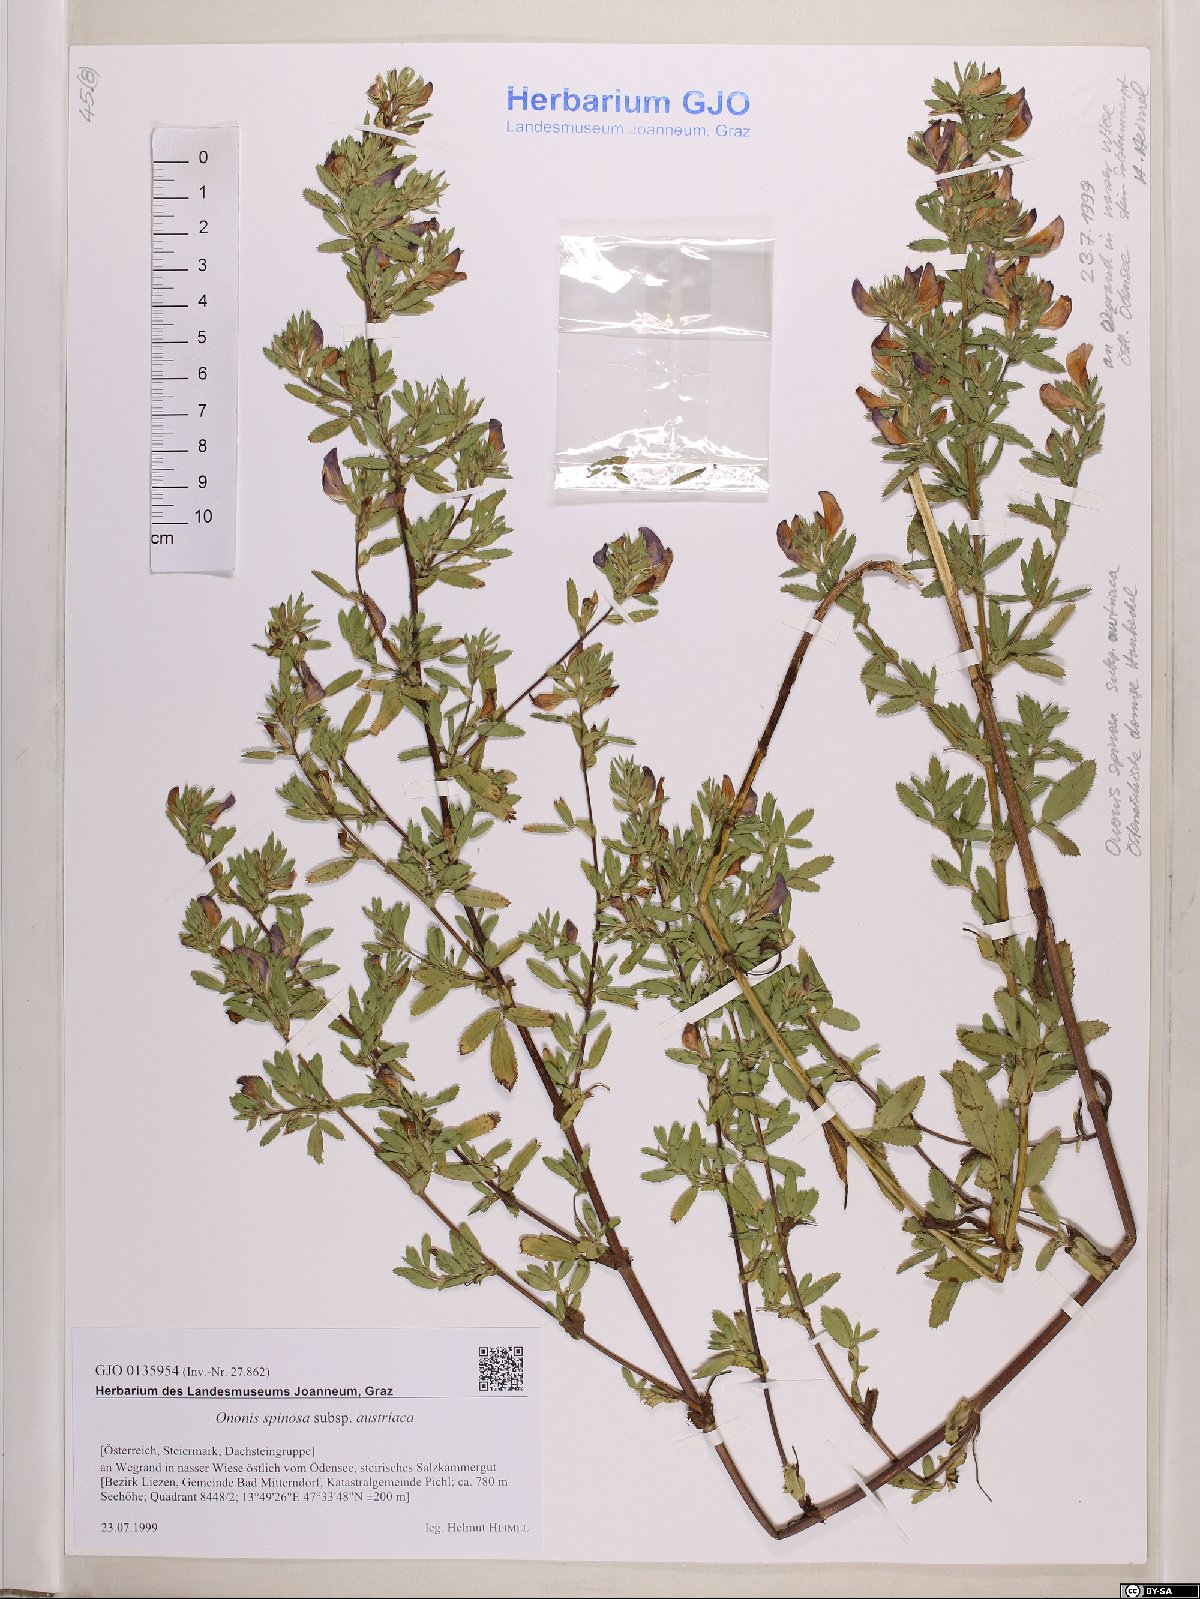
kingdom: Plantae
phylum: Tracheophyta
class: Magnoliopsida
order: Fabales
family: Fabaceae
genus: Ononis
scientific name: Ononis spinosa
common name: Spiny restharrow
